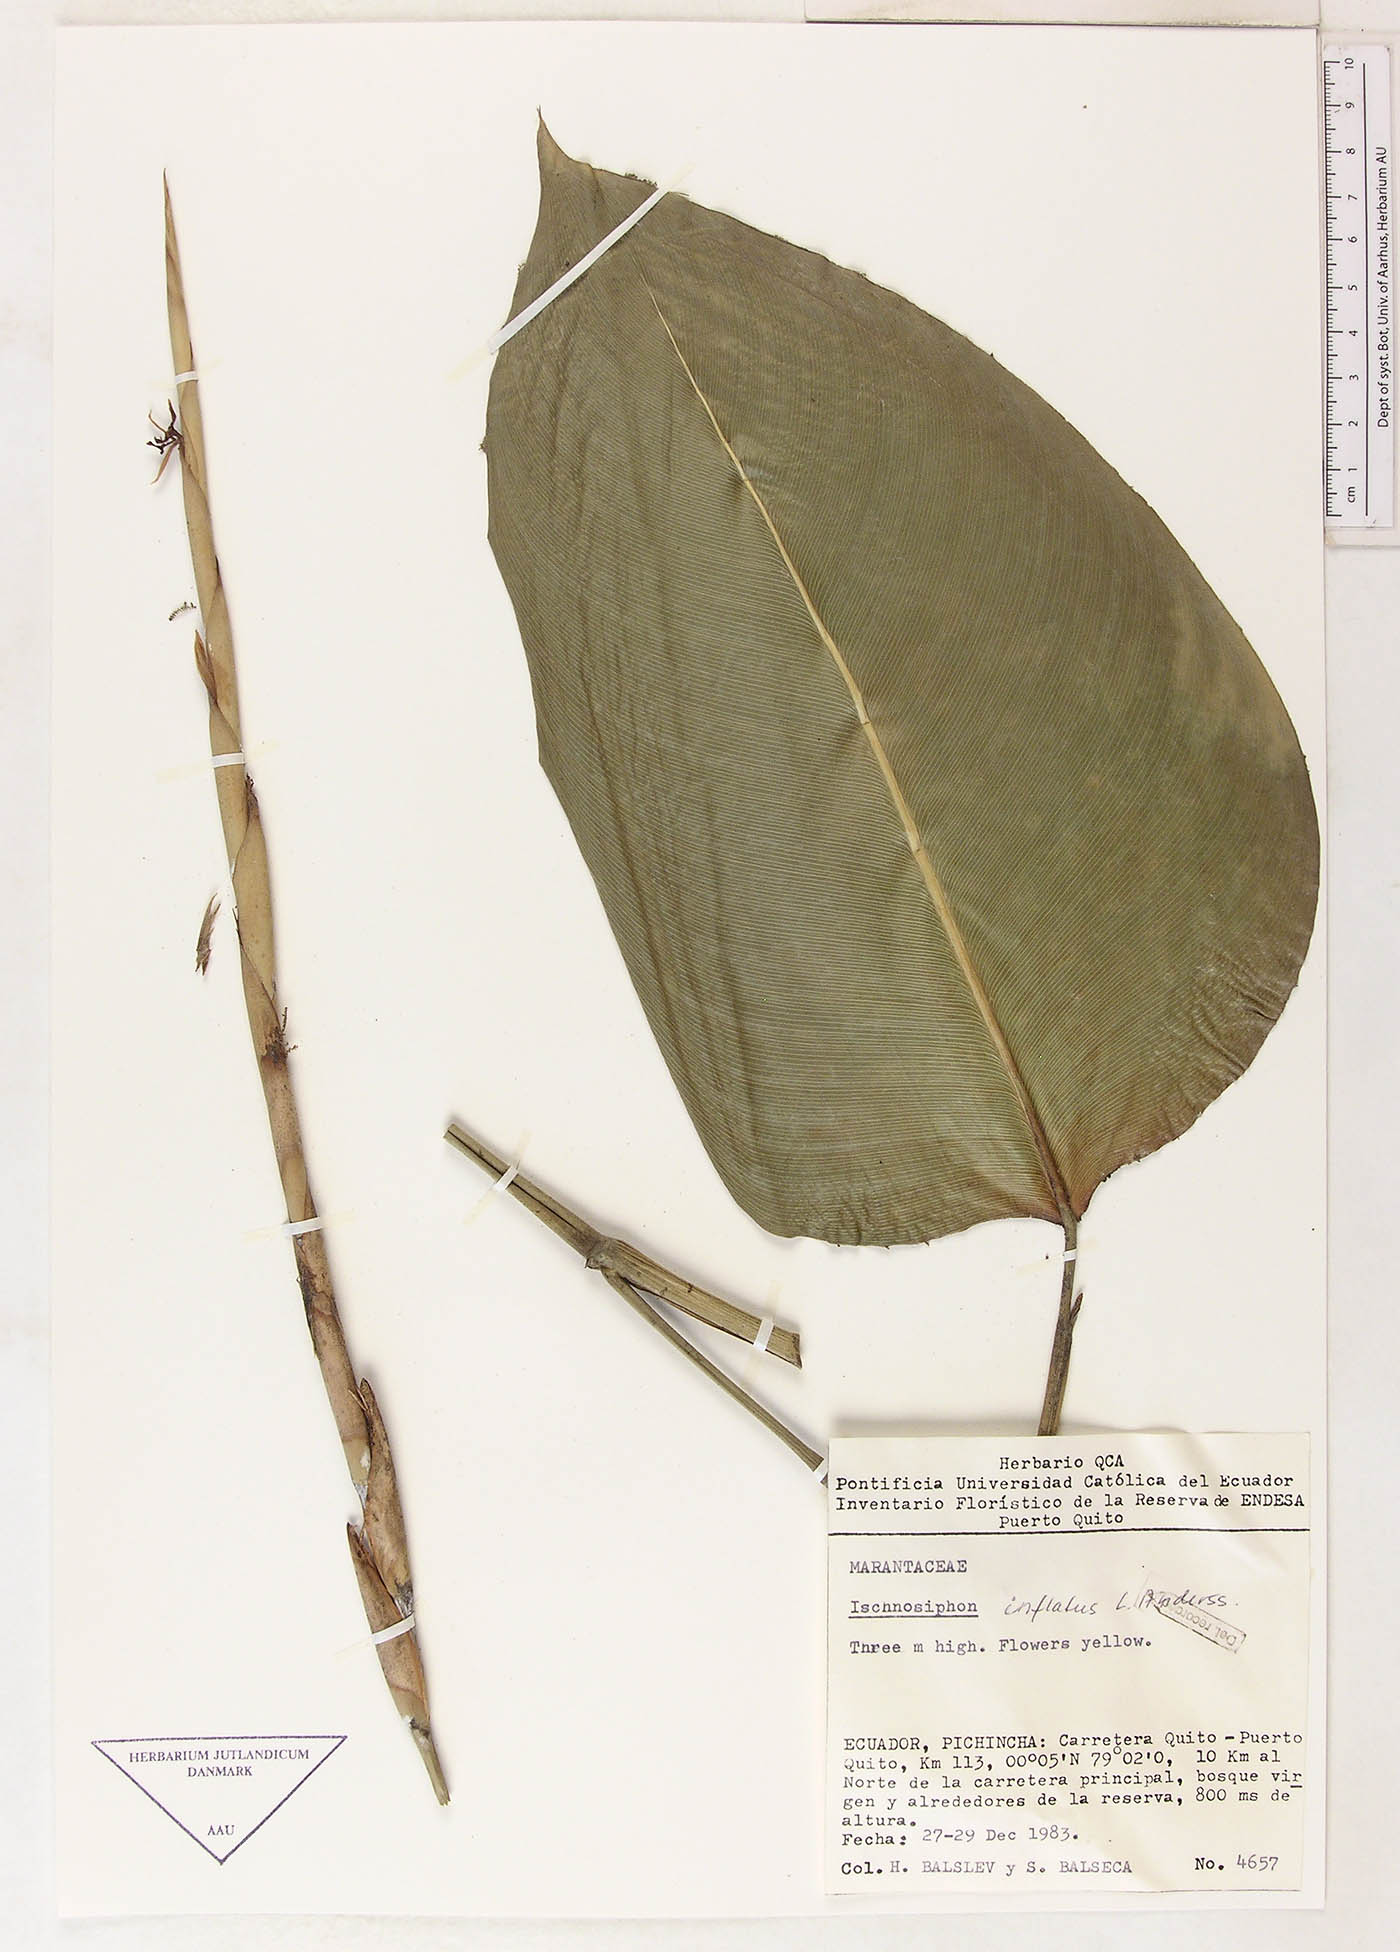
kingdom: Plantae
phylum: Tracheophyta
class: Liliopsida
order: Zingiberales
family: Marantaceae
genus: Ischnosiphon
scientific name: Ischnosiphon inflatus
